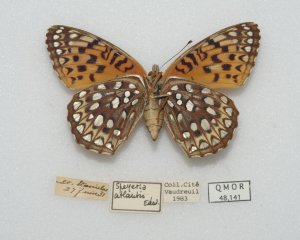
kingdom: Animalia
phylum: Arthropoda
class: Insecta
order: Lepidoptera
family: Nymphalidae
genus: Speyeria
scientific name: Speyeria aphrodite
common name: Aphrodite Fritillary
